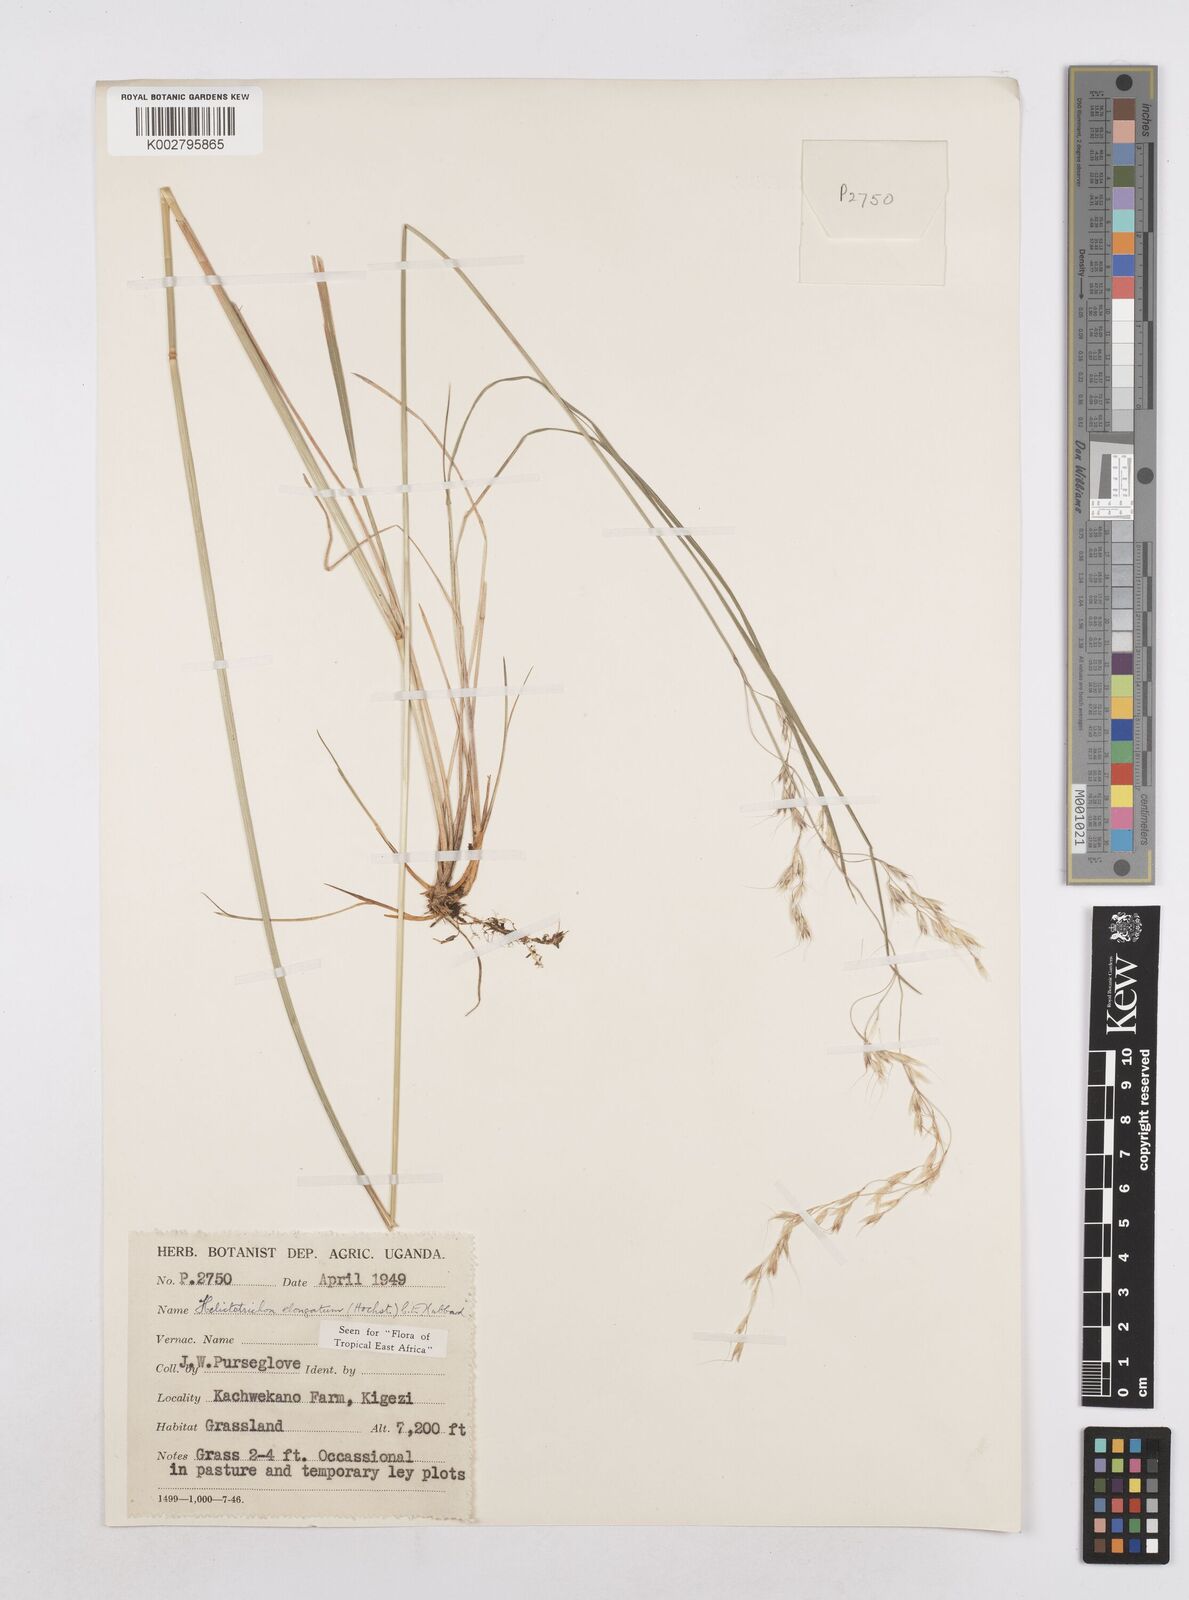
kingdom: Plantae
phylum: Tracheophyta
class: Liliopsida
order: Poales
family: Poaceae
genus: Trisetopsis
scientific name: Trisetopsis elongata
